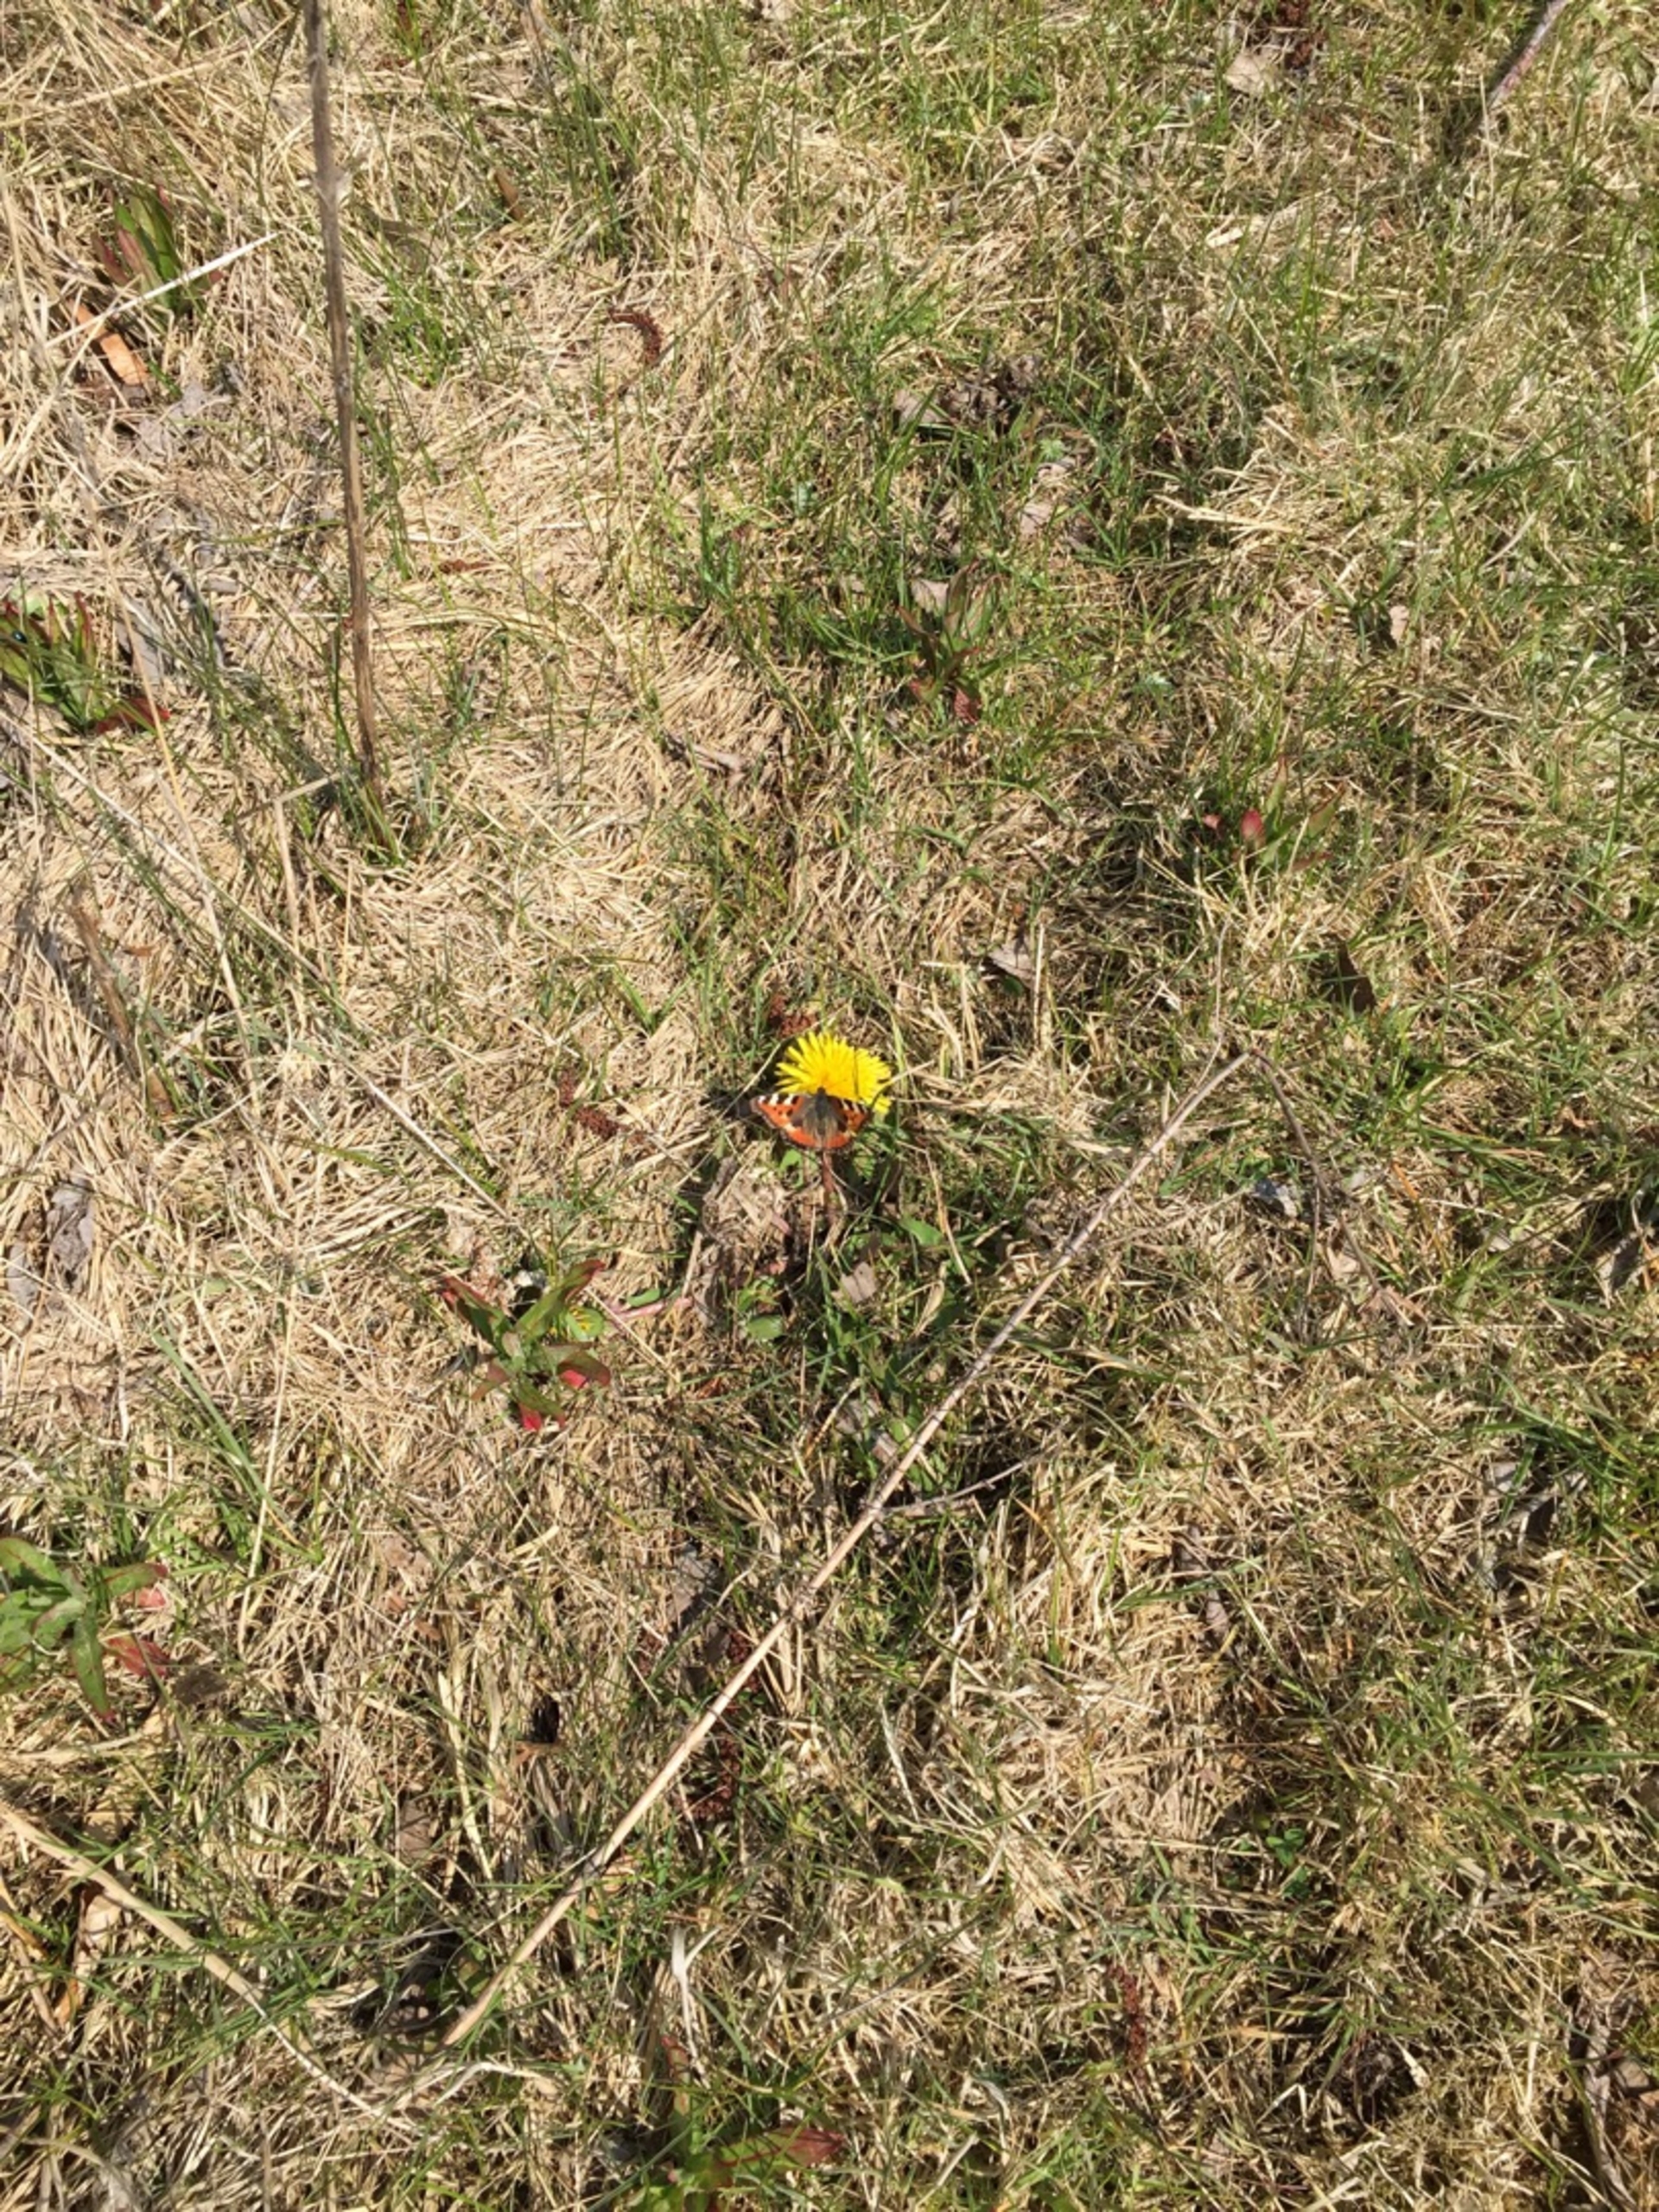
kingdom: Animalia
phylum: Arthropoda
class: Insecta
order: Lepidoptera
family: Nymphalidae
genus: Aglais
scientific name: Aglais urticae
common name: Nældens takvinge
